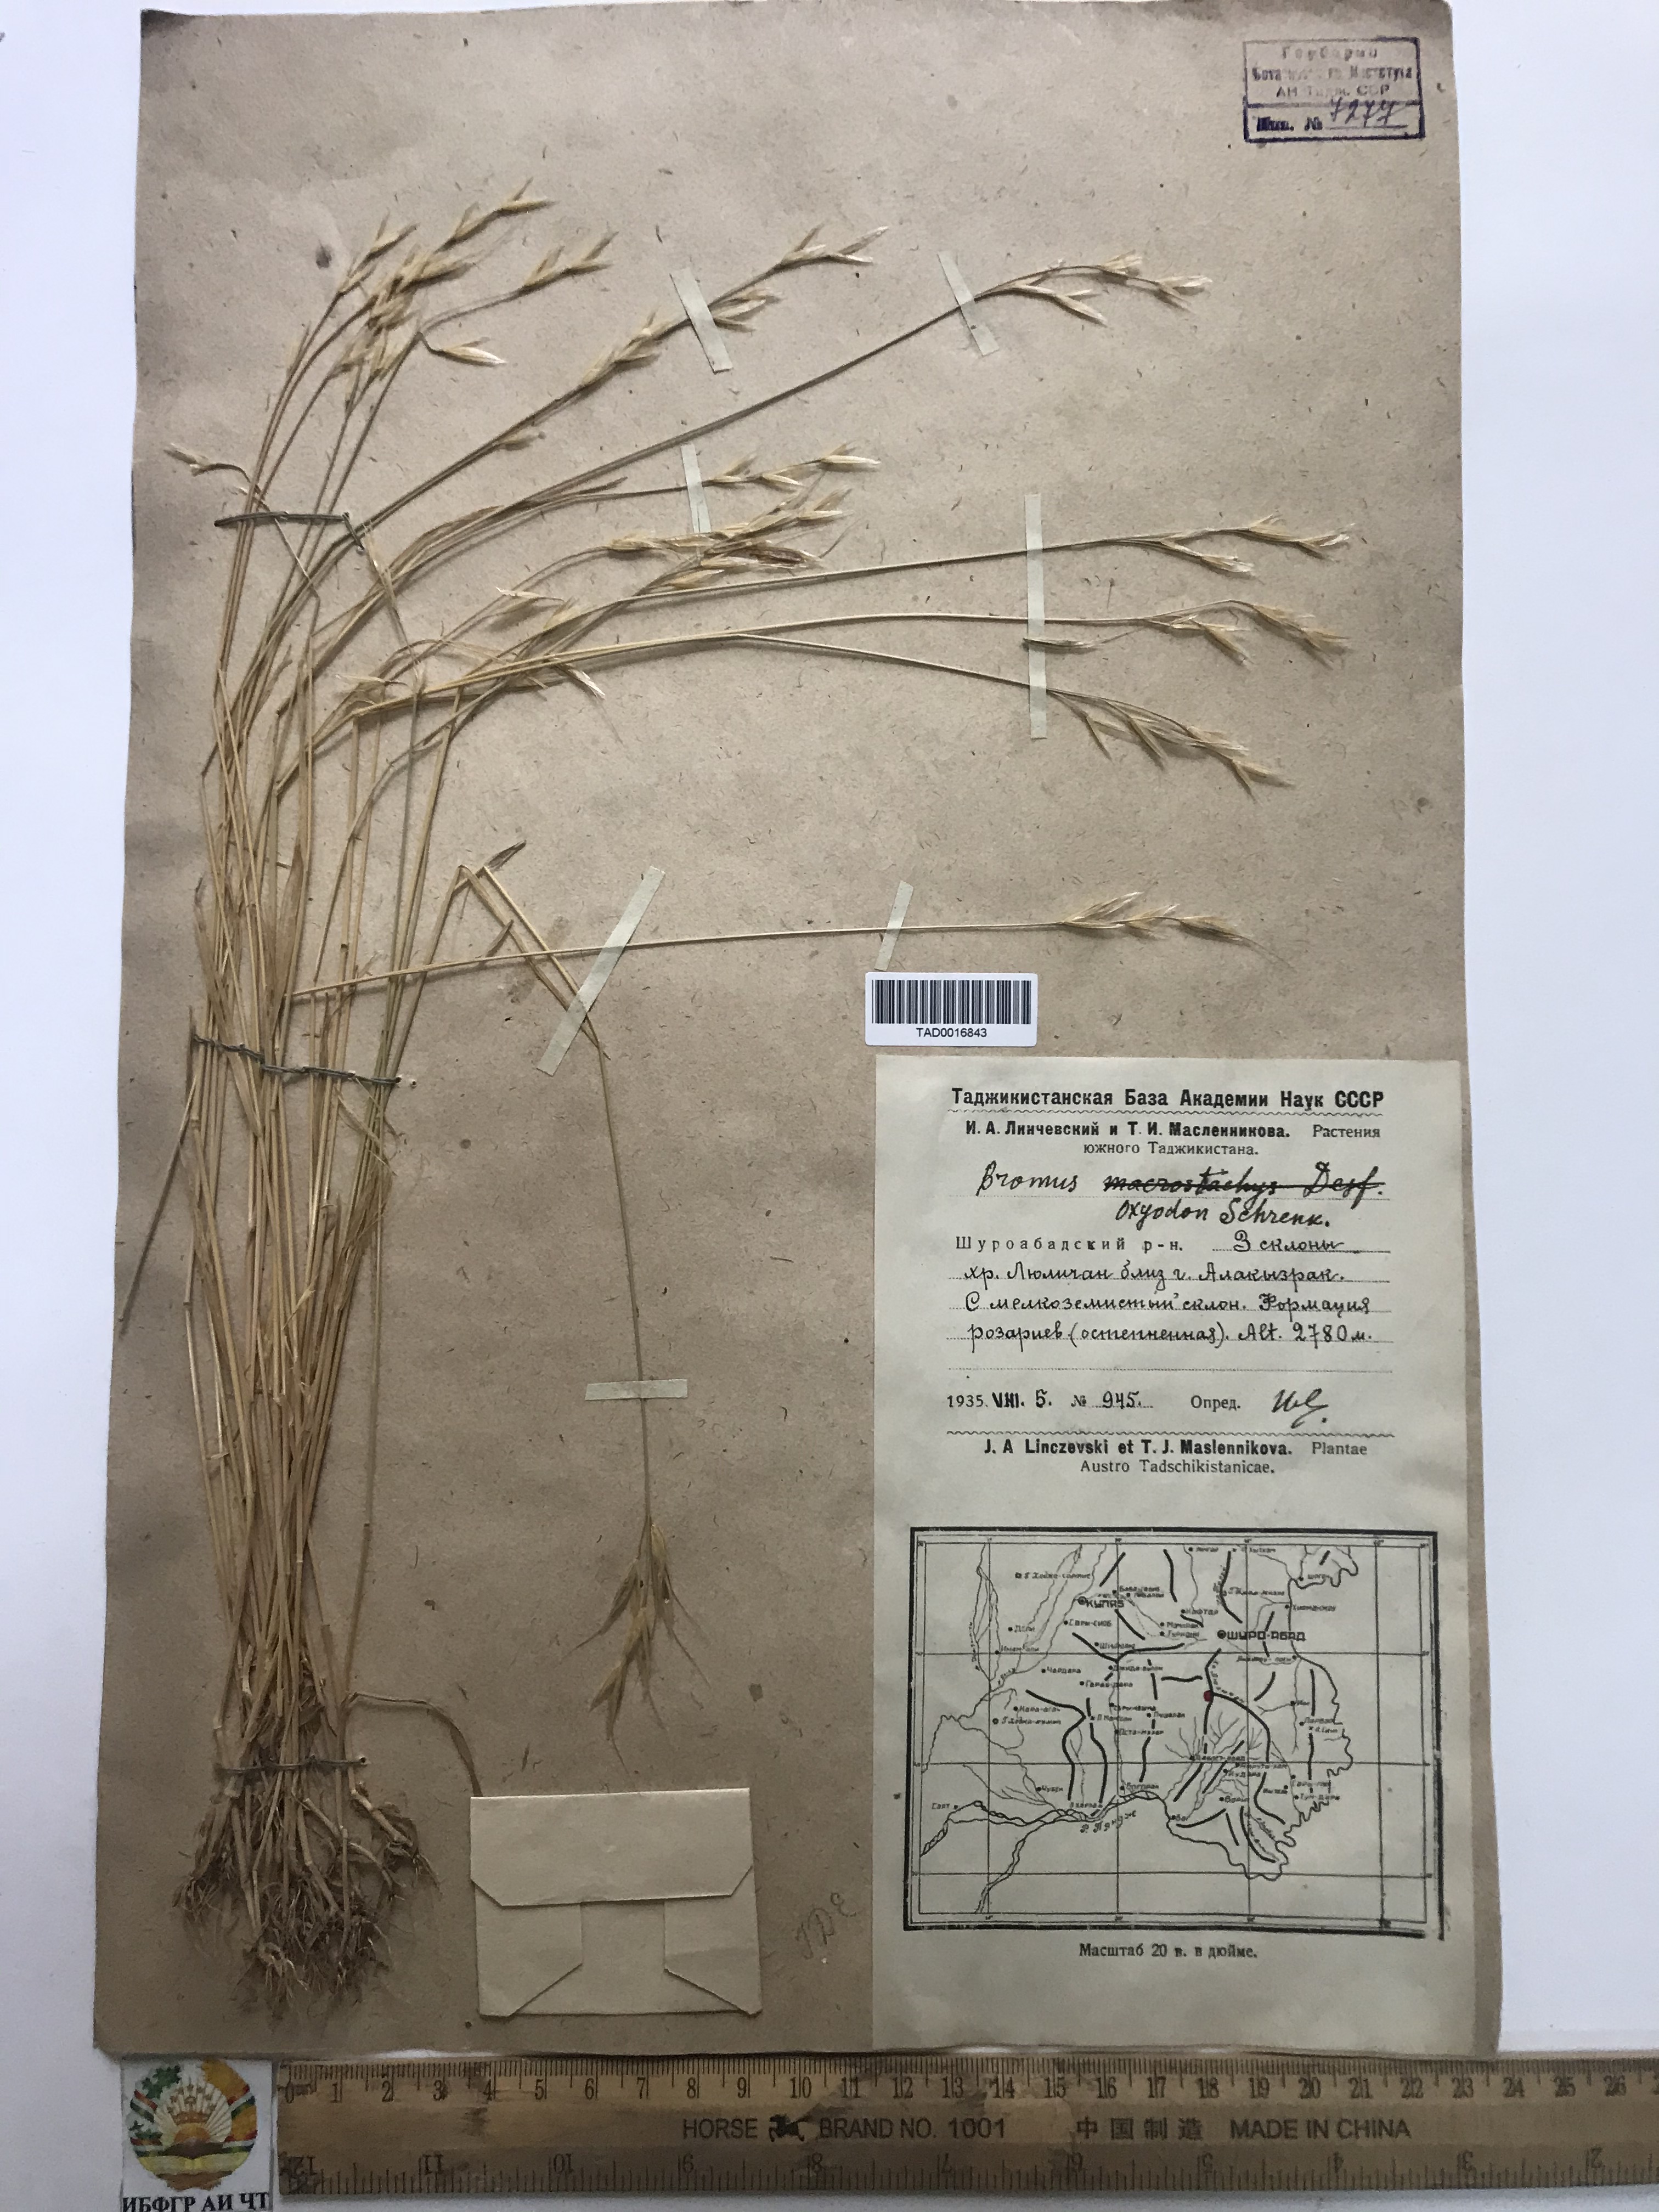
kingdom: Plantae
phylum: Tracheophyta
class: Liliopsida
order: Poales
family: Poaceae
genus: Bromus
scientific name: Bromus oxyodon
